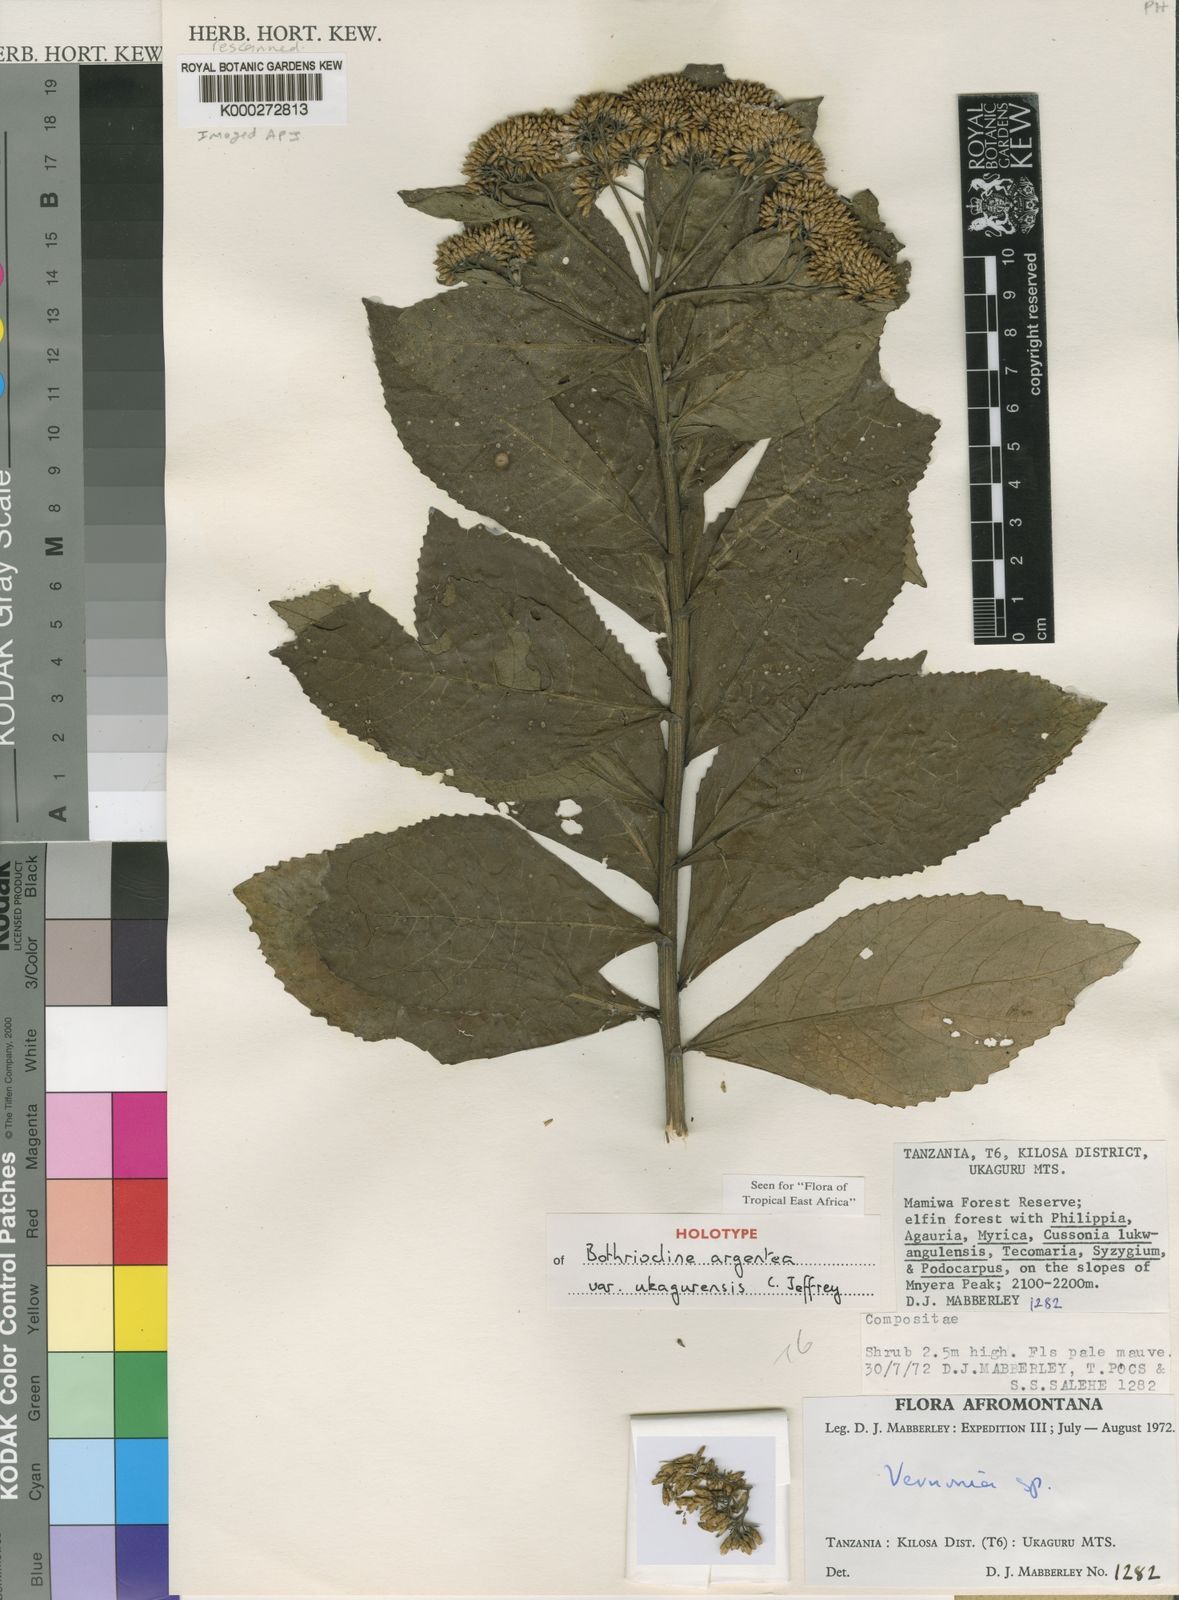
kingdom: Plantae
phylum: Tracheophyta
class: Magnoliopsida
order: Asterales
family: Asteraceae
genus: Bothriocline
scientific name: Bothriocline argentea
